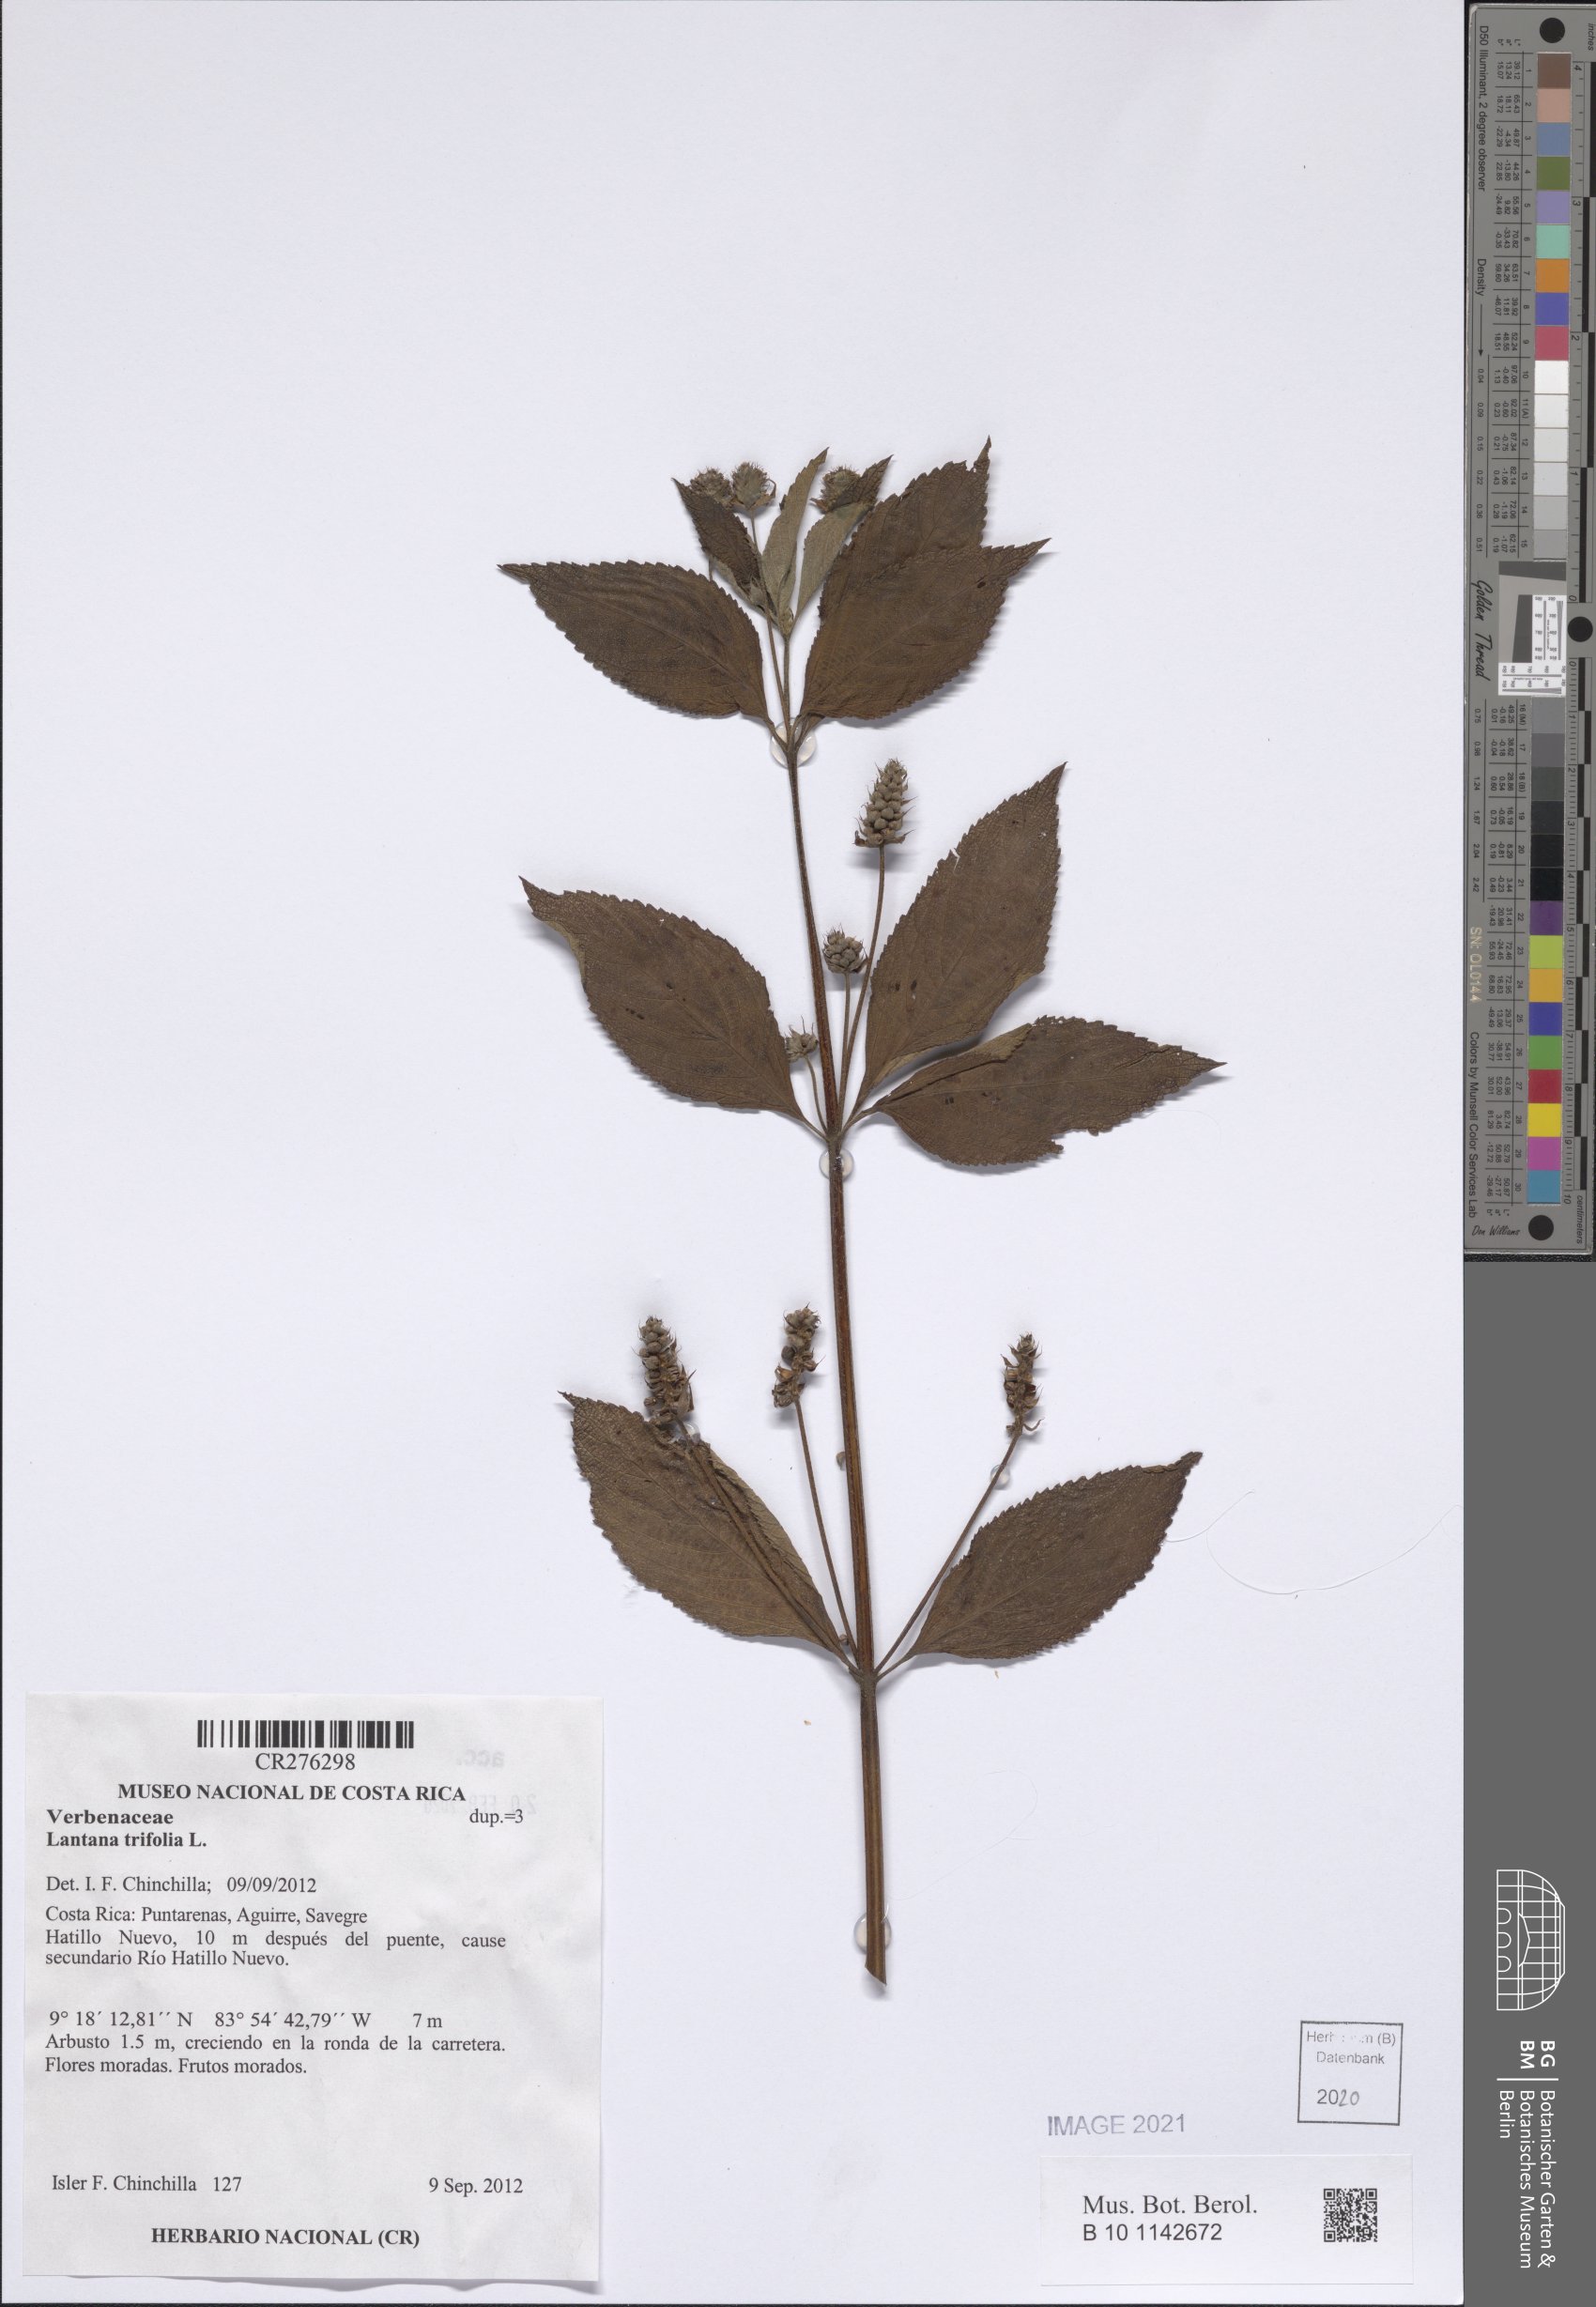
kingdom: Plantae
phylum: Tracheophyta
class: Magnoliopsida
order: Lamiales
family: Verbenaceae
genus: Lantana
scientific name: Lantana trifolia
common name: Sweet-sage
